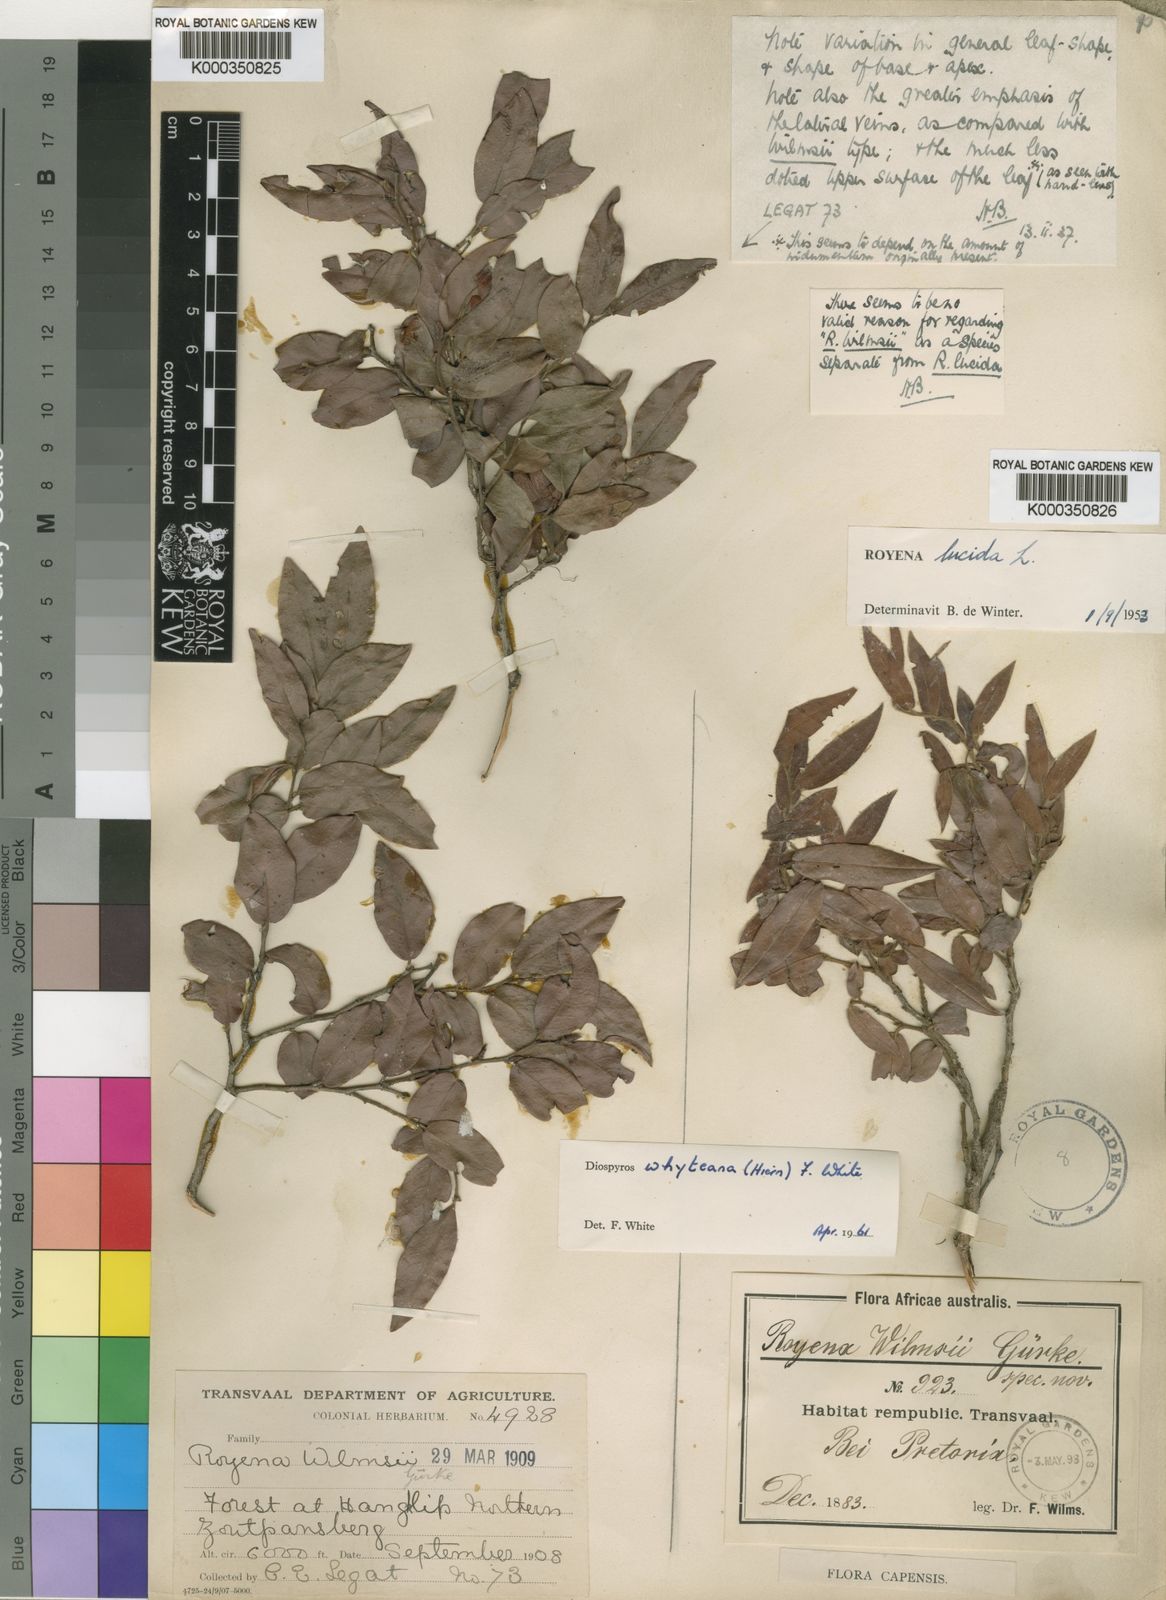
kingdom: Plantae
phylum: Tracheophyta
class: Magnoliopsida
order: Ericales
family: Ebenaceae
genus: Diospyros
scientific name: Diospyros whyteana
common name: Bladder-nut
